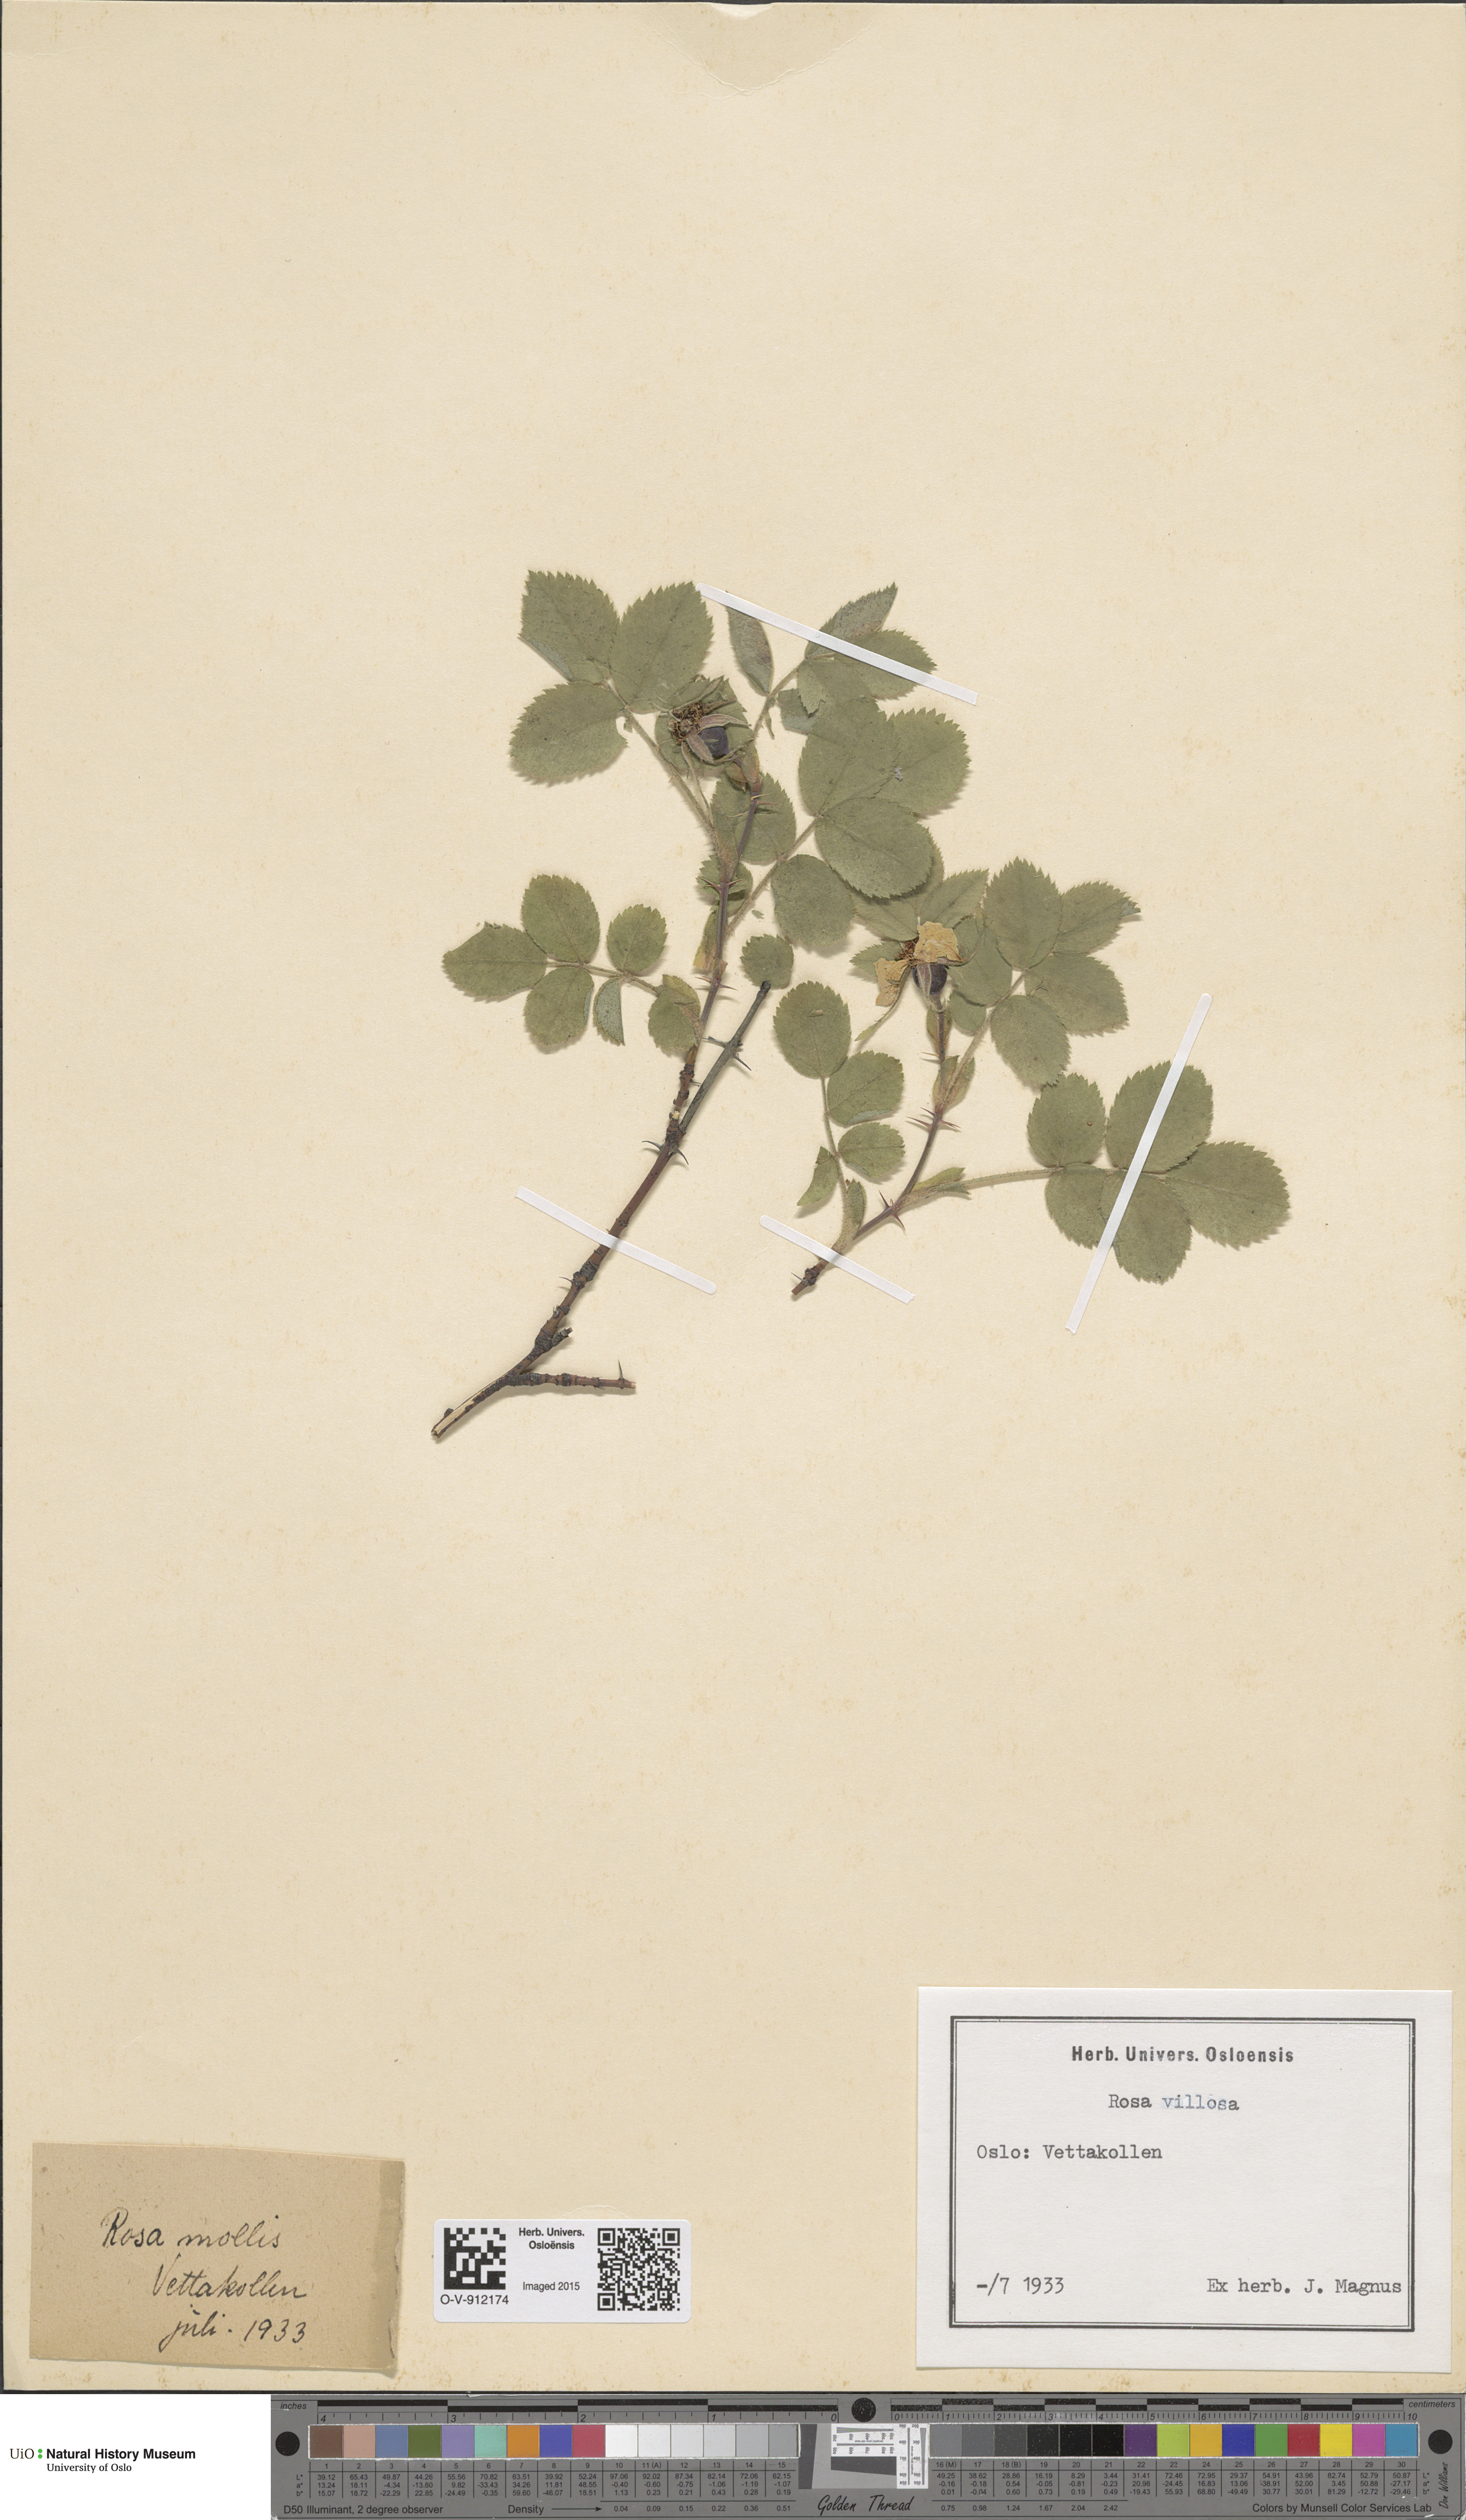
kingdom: Plantae
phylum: Tracheophyta
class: Magnoliopsida
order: Rosales
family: Rosaceae
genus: Rosa
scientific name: Rosa villosa
